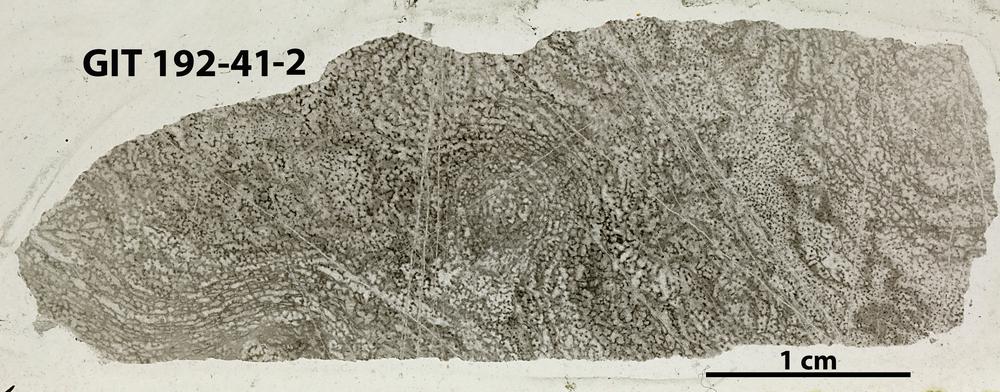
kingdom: Animalia
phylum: Porifera
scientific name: Porifera
